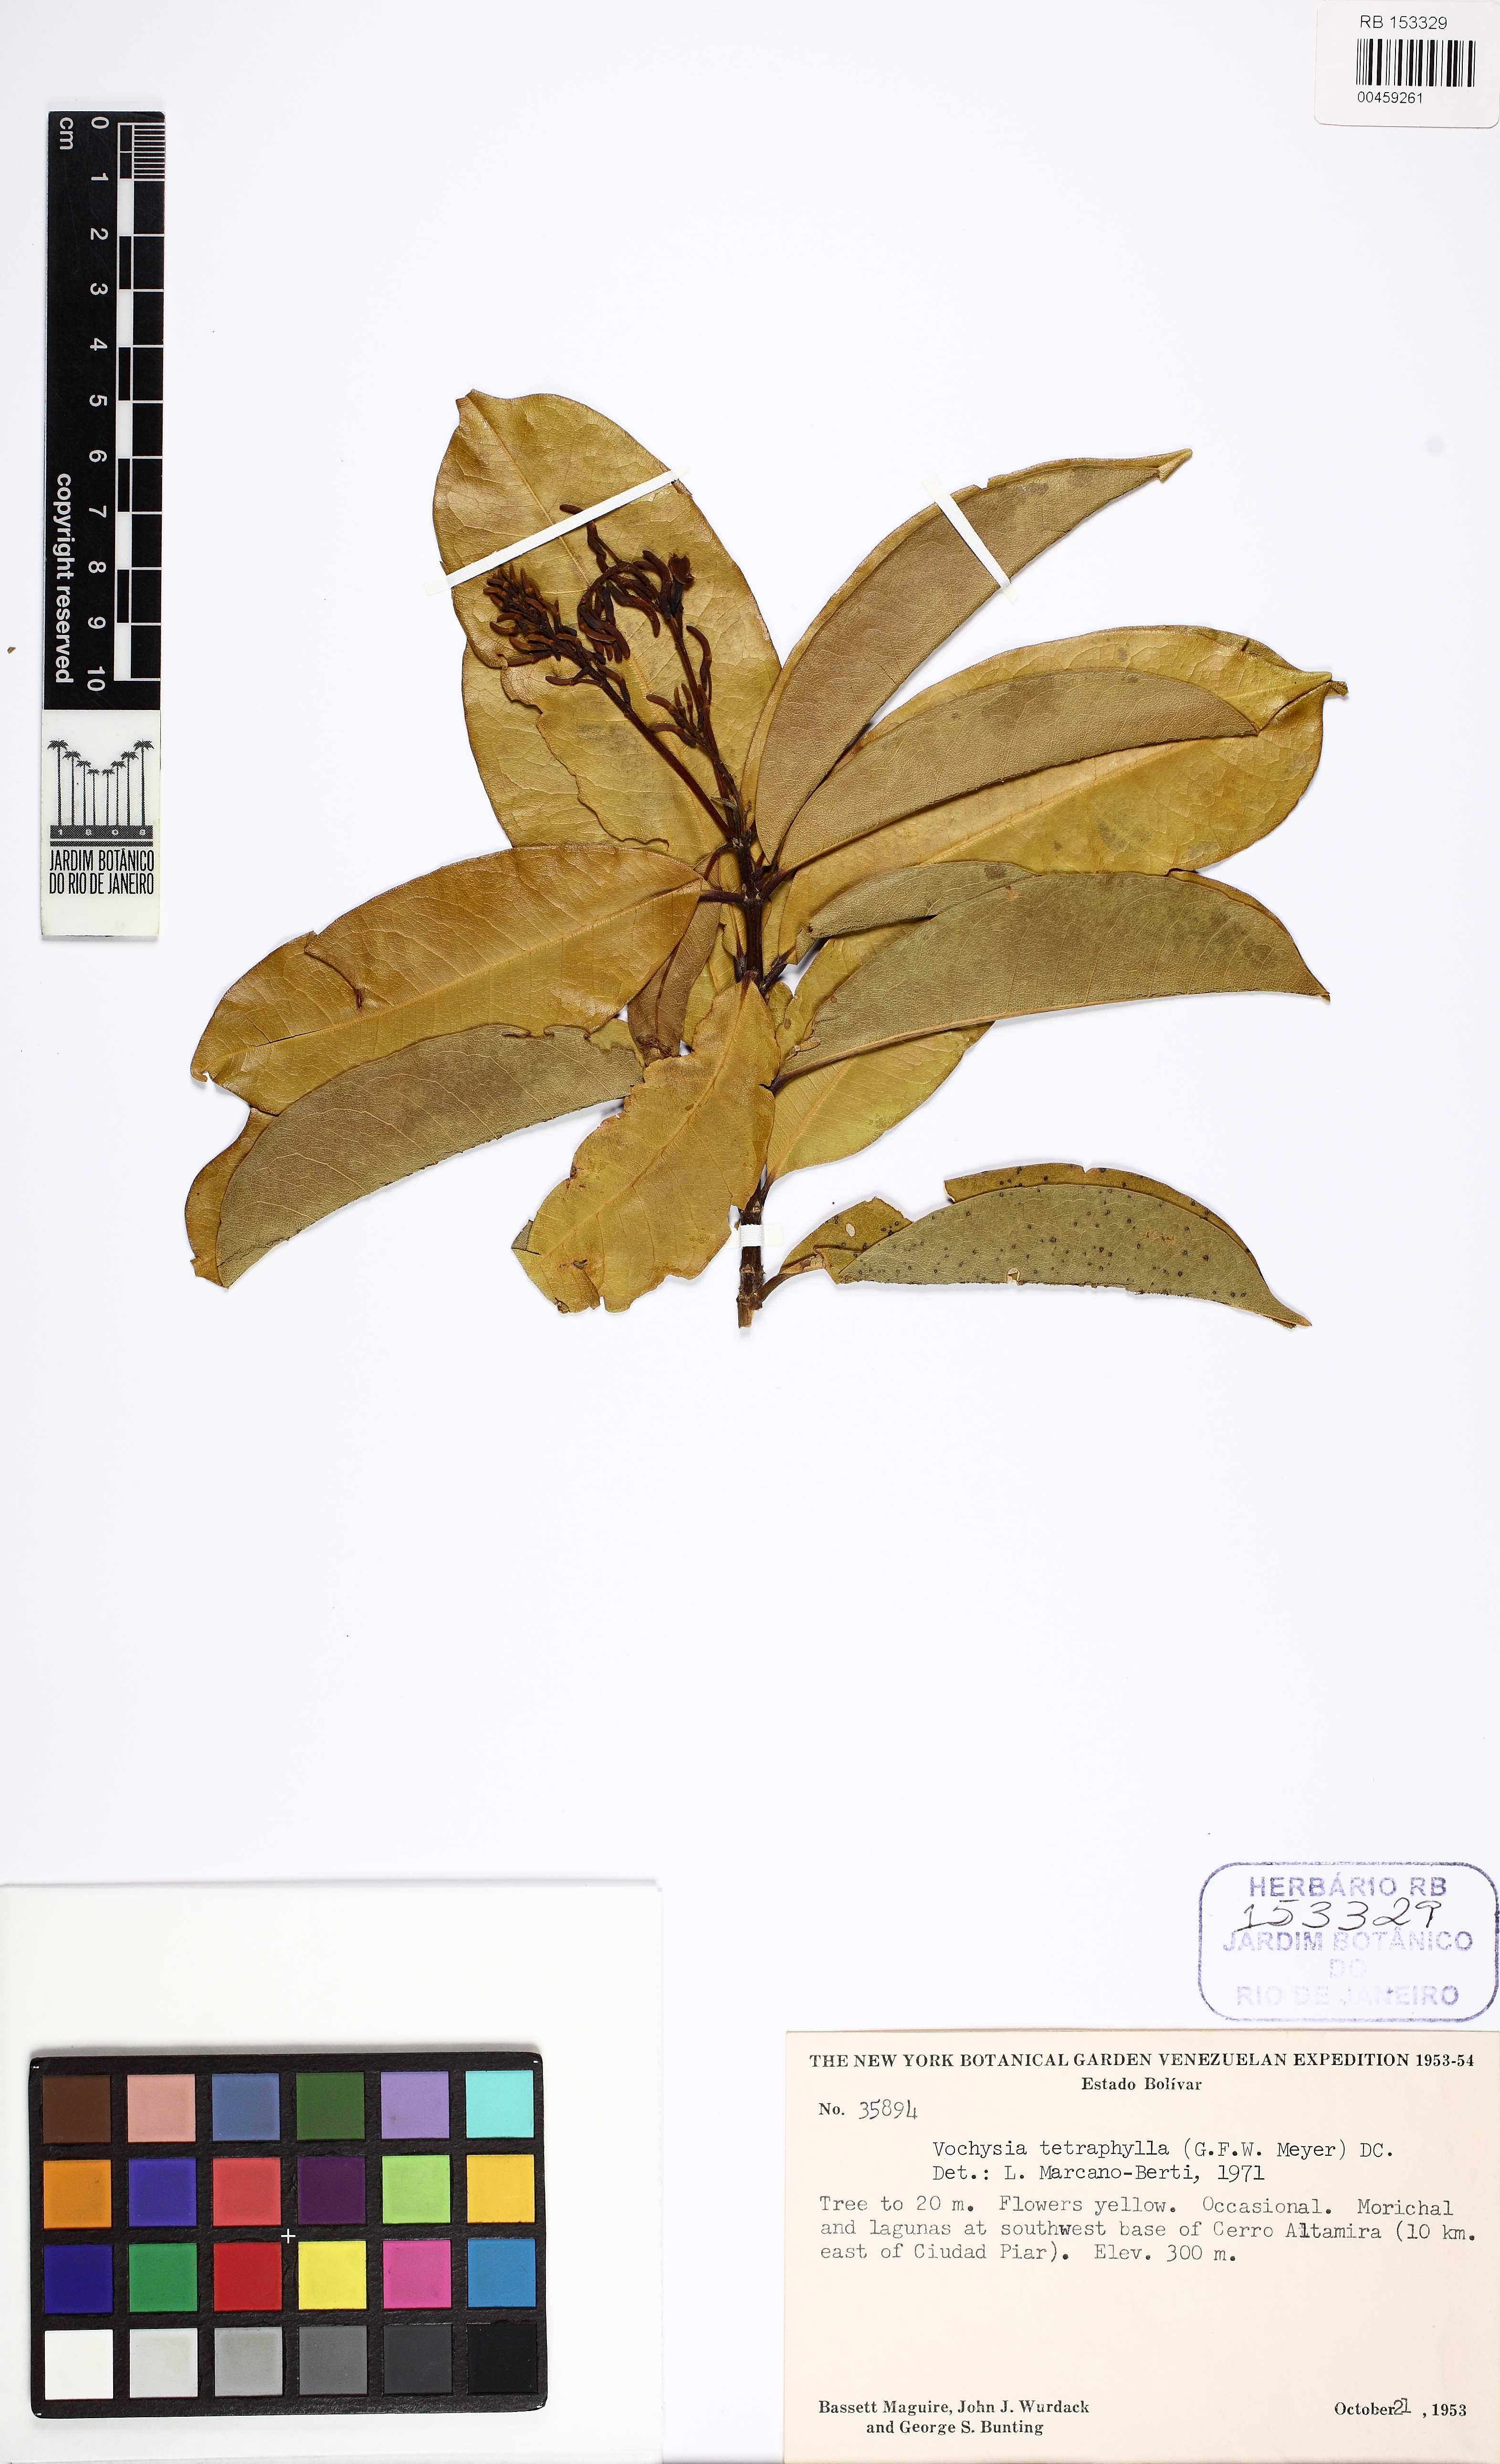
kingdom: Plantae
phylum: Tracheophyta
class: Magnoliopsida
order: Myrtales
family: Vochysiaceae
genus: Vochysia
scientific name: Vochysia tetraphylla
